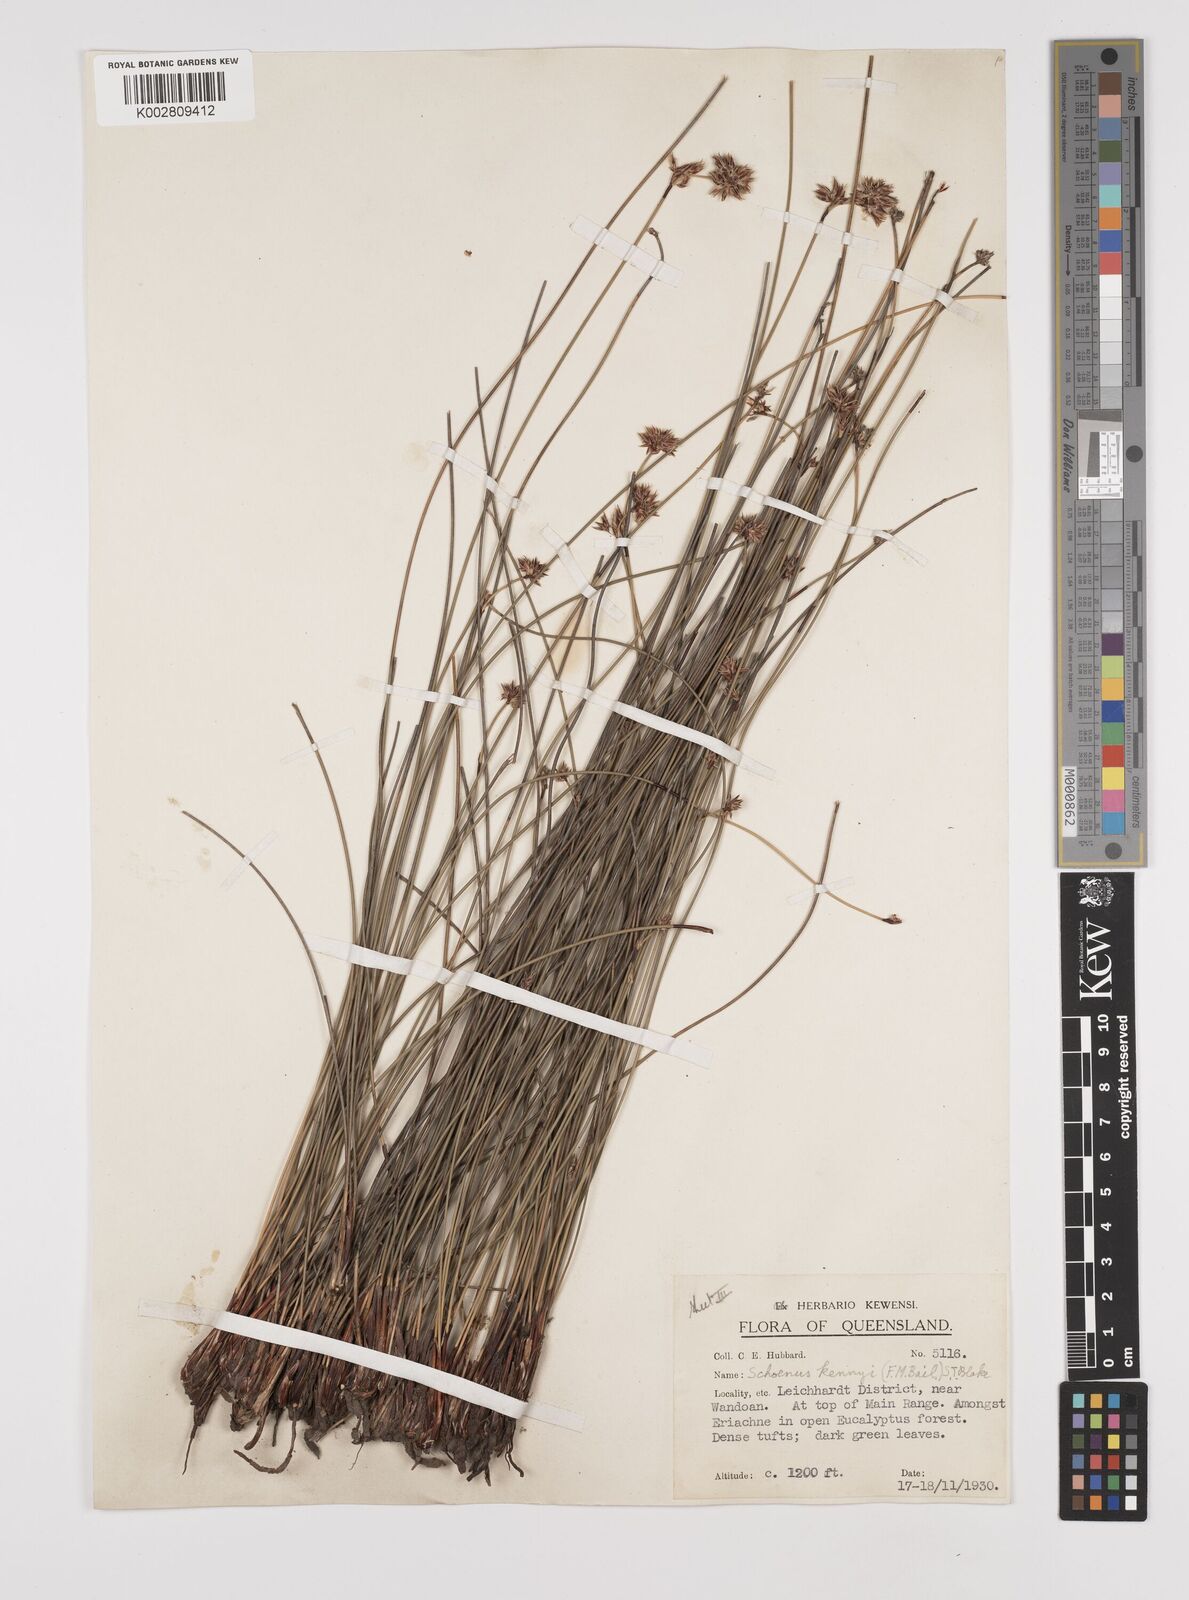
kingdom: Plantae
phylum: Tracheophyta
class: Liliopsida
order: Poales
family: Cyperaceae
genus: Schoenus
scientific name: Schoenus kennyi
